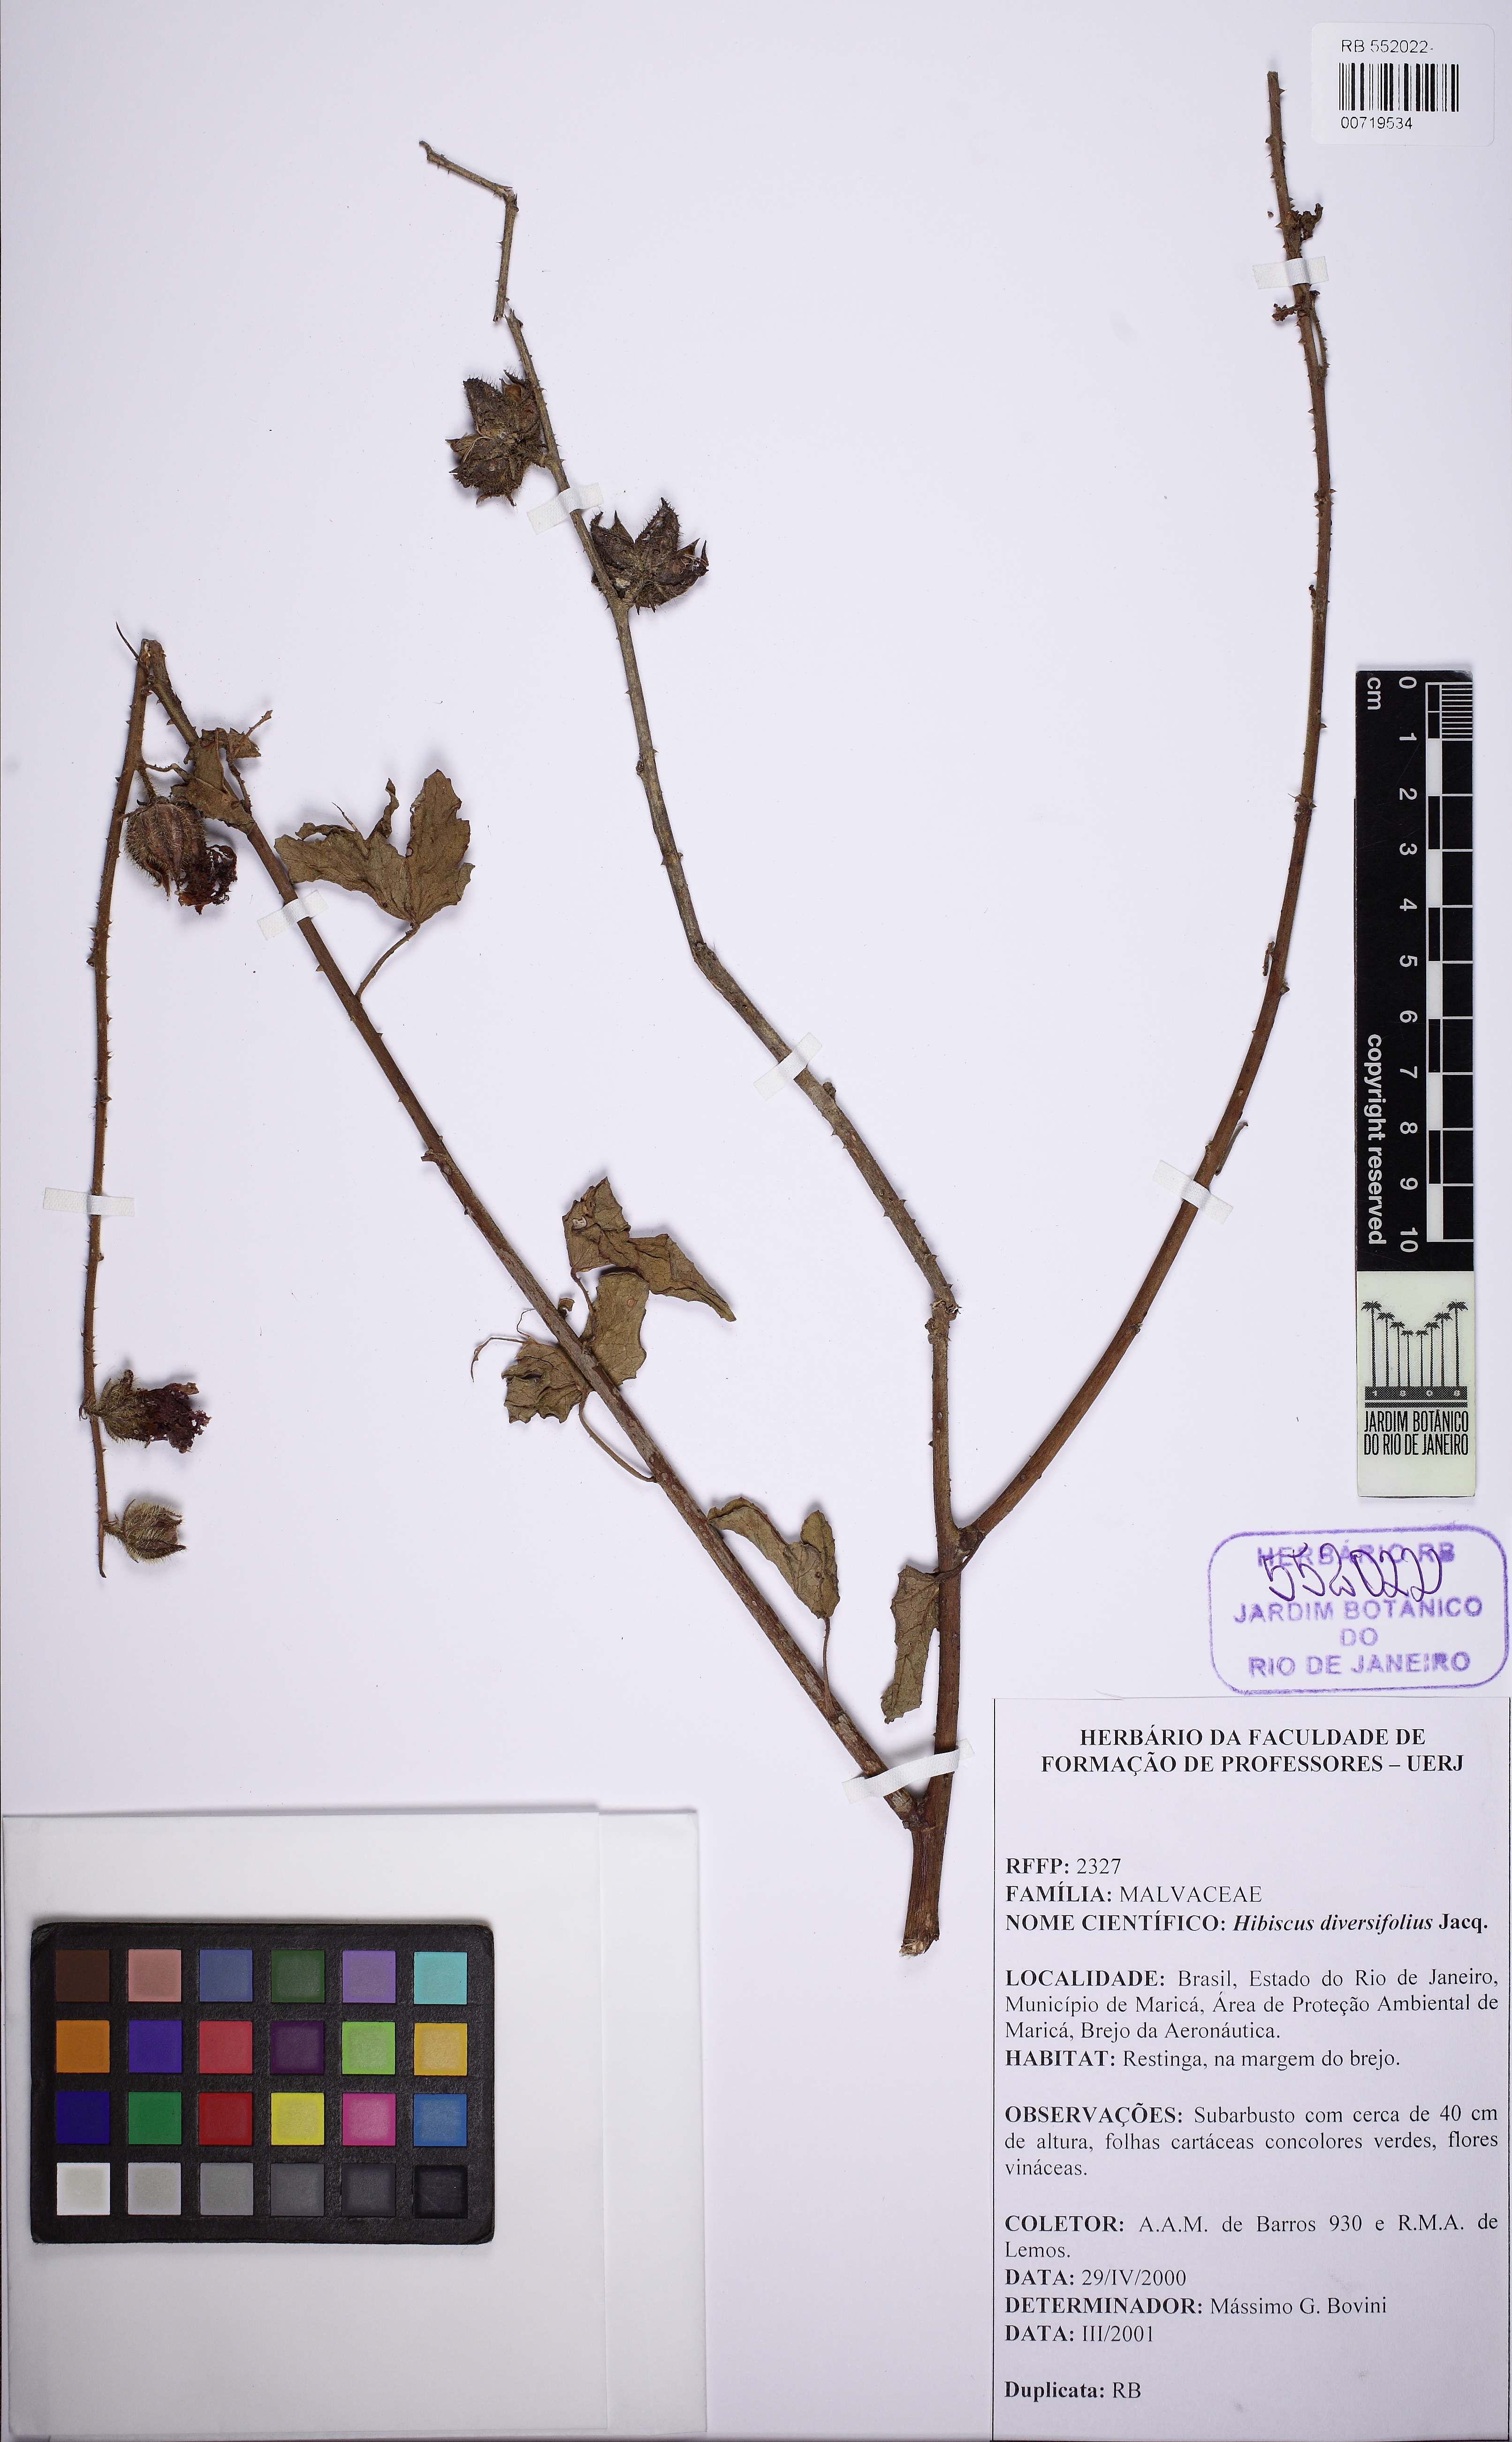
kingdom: Plantae
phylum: Tracheophyta
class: Magnoliopsida
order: Malvales
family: Malvaceae
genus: Hibiscus
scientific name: Hibiscus diversifolius
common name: Cape hibiscus
